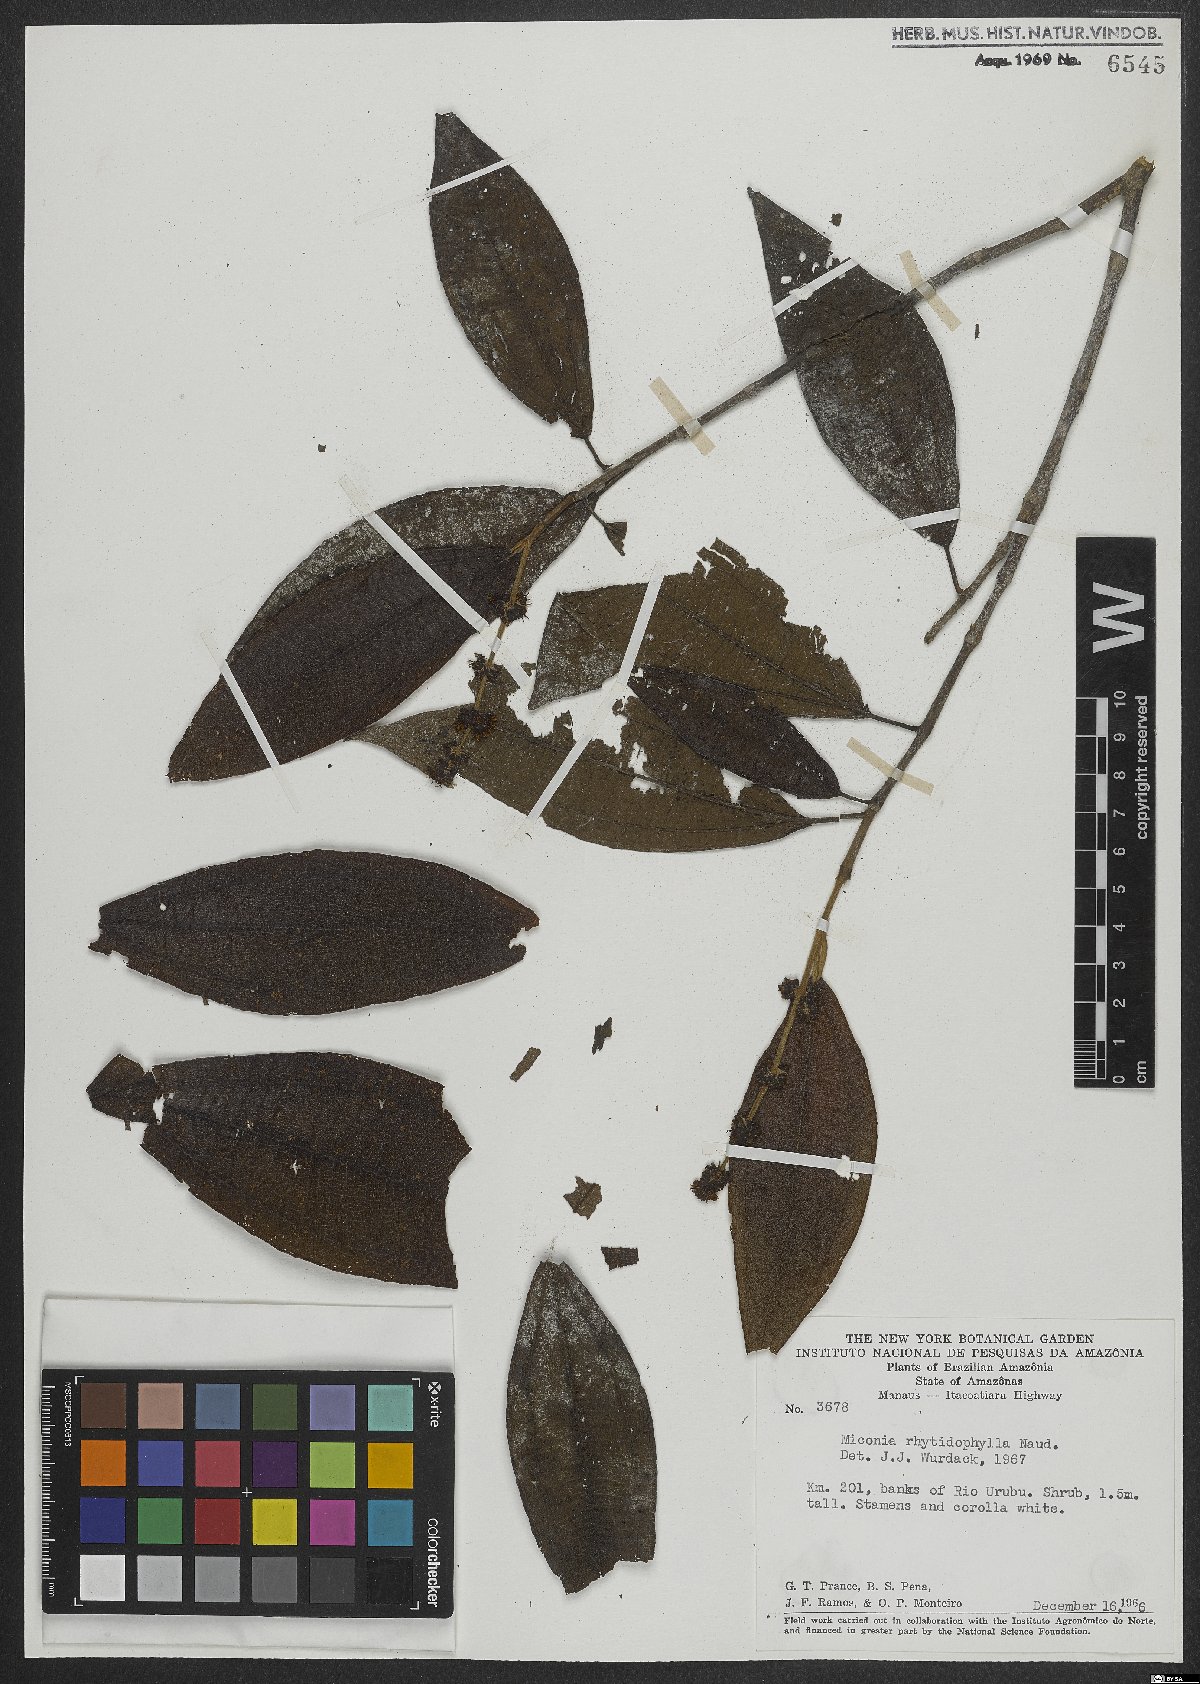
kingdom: Plantae
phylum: Tracheophyta
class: Magnoliopsida
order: Myrtales
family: Melastomataceae
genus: Miconia
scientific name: Miconia rhytidophylla
